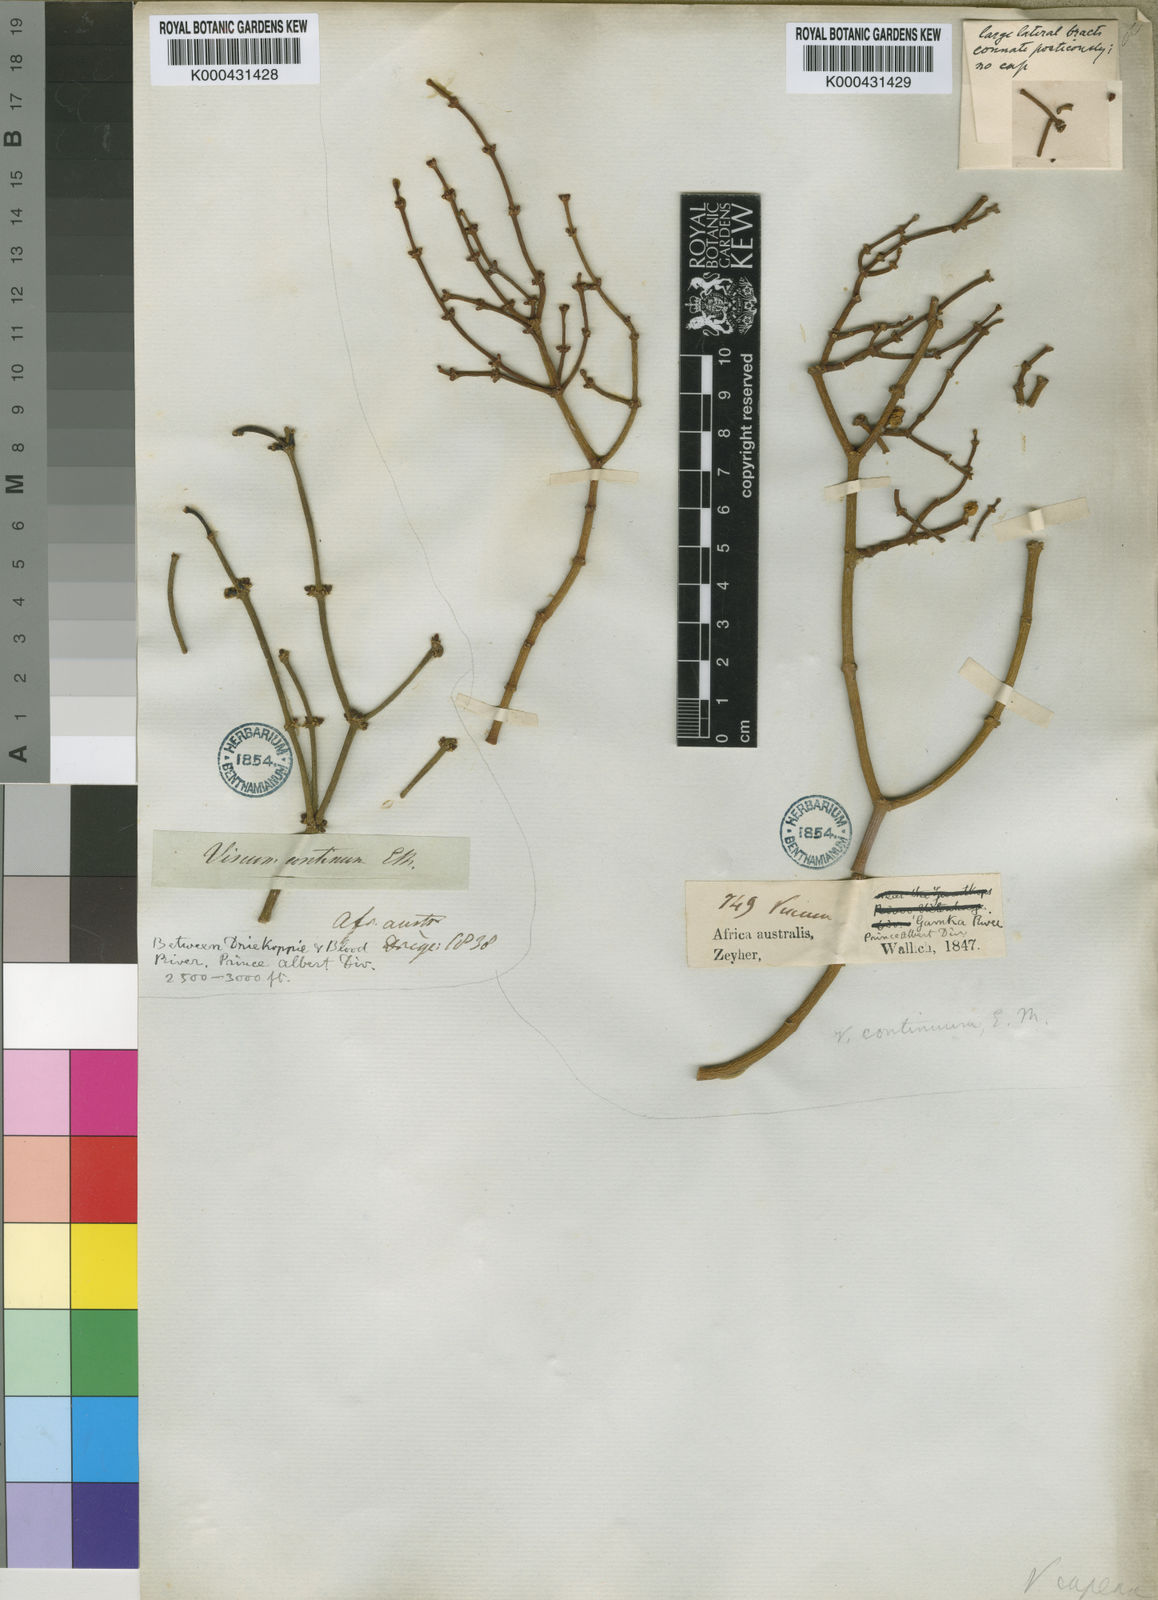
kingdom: Plantae
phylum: Tracheophyta
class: Magnoliopsida
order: Santalales
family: Viscaceae
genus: Viscum
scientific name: Viscum continuum
